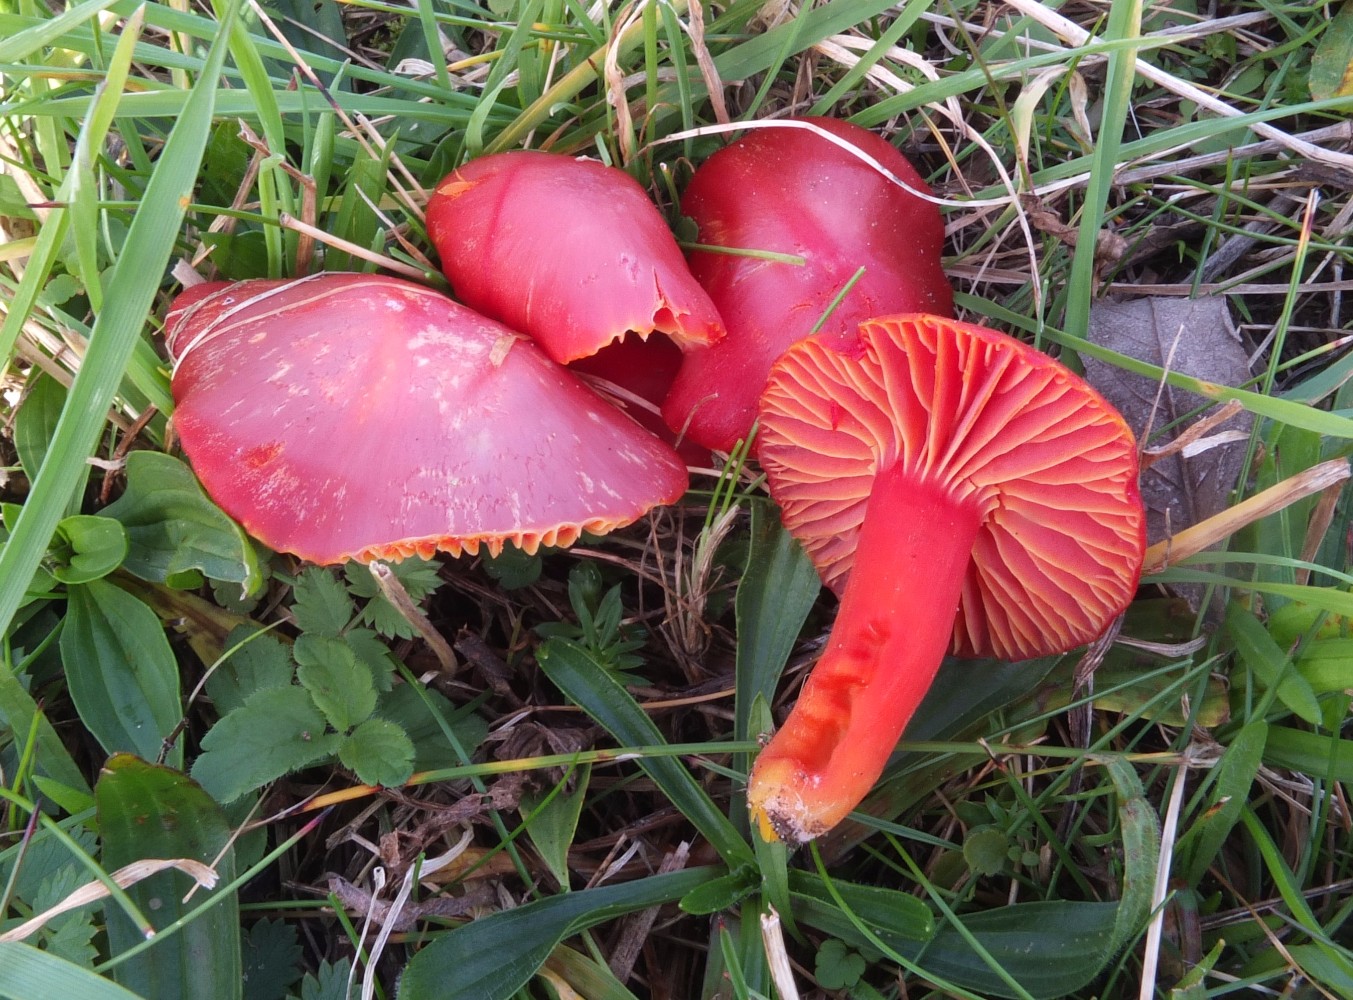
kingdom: Fungi
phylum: Basidiomycota
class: Agaricomycetes
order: Agaricales
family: Hygrophoraceae
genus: Hygrocybe
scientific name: Hygrocybe coccinea
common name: cinnober-vokshat
